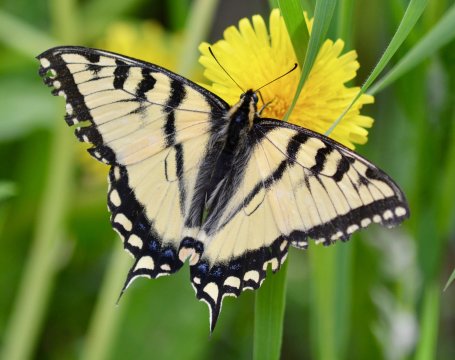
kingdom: Animalia
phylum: Arthropoda
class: Insecta
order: Lepidoptera
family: Papilionidae
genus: Pterourus
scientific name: Pterourus canadensis
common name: Canadian Tiger Swallowtail
